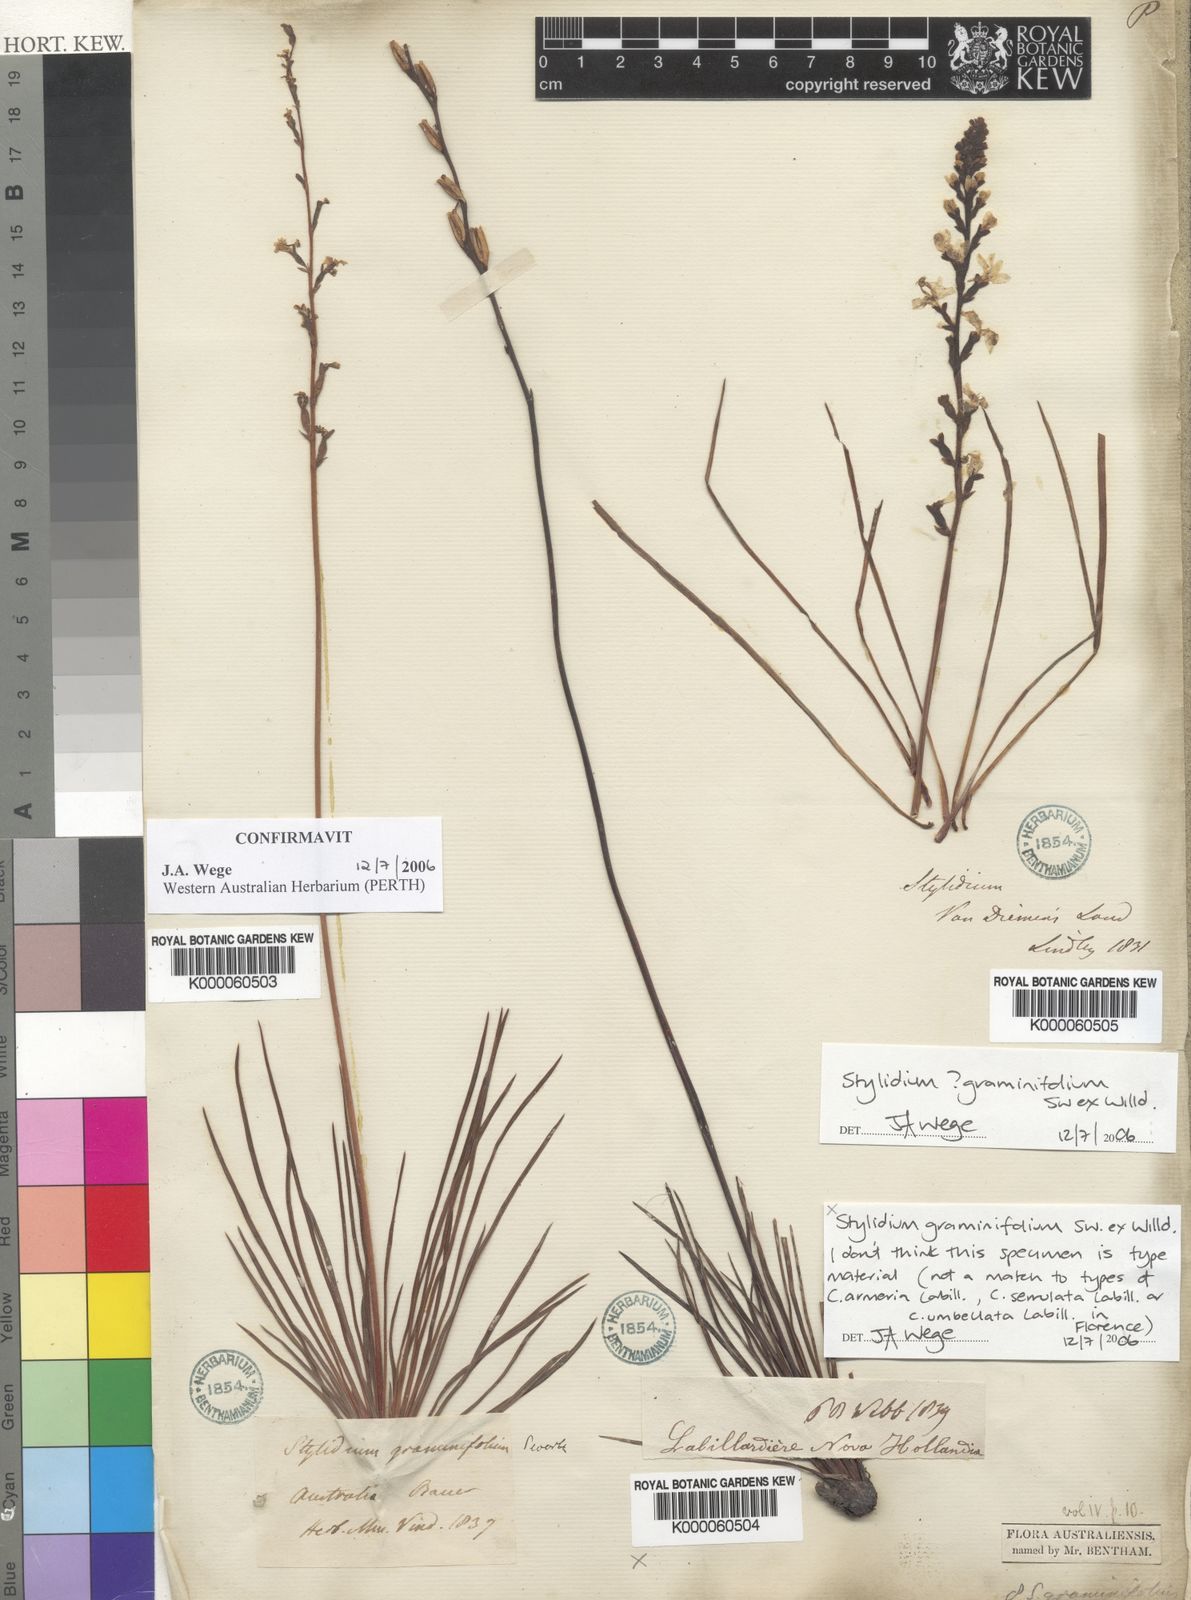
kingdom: Plantae
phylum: Tracheophyta
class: Magnoliopsida
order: Asterales
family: Stylidiaceae
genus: Stylidium
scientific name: Stylidium graminifolium
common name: Grass triggerplant
